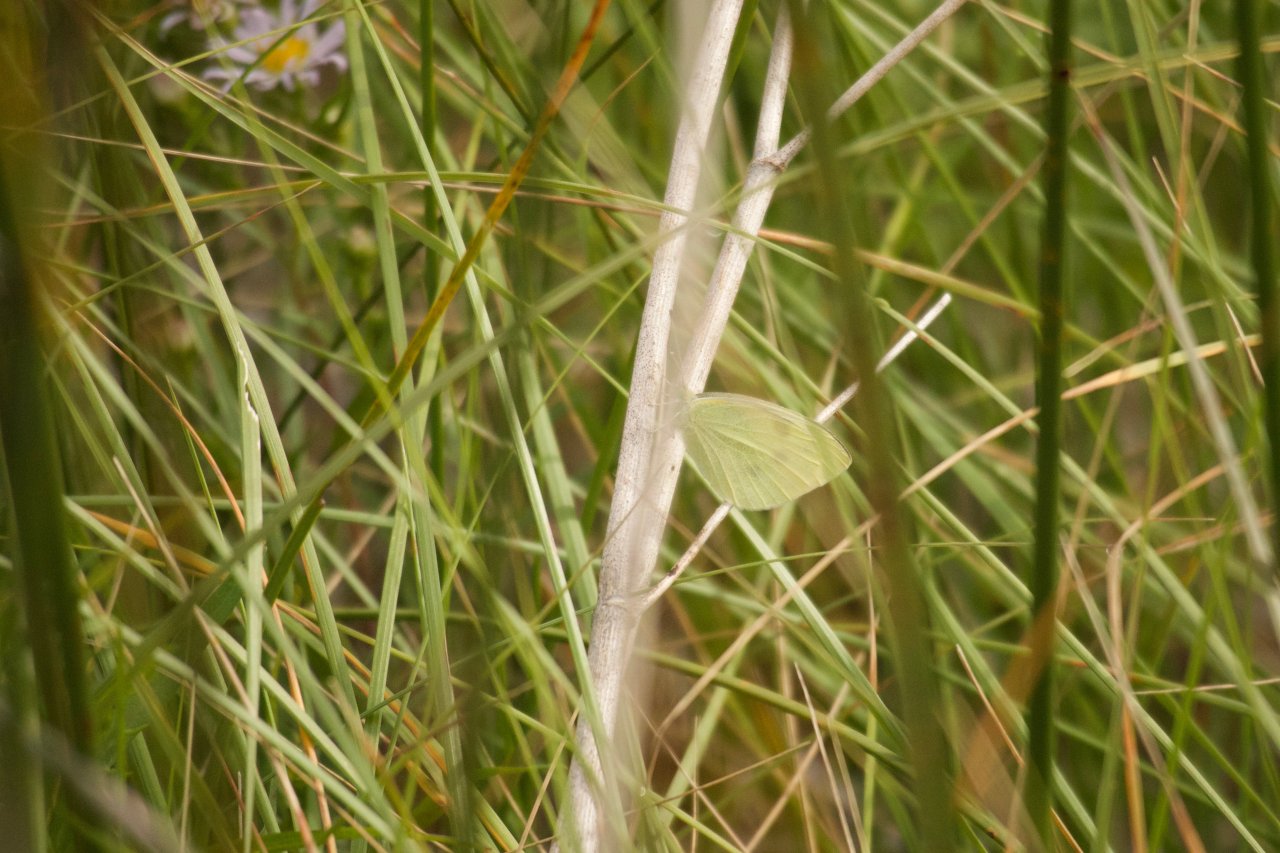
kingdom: Animalia
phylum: Arthropoda
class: Insecta
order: Lepidoptera
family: Pieridae
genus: Pieris
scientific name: Pieris rapae
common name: Cabbage White
